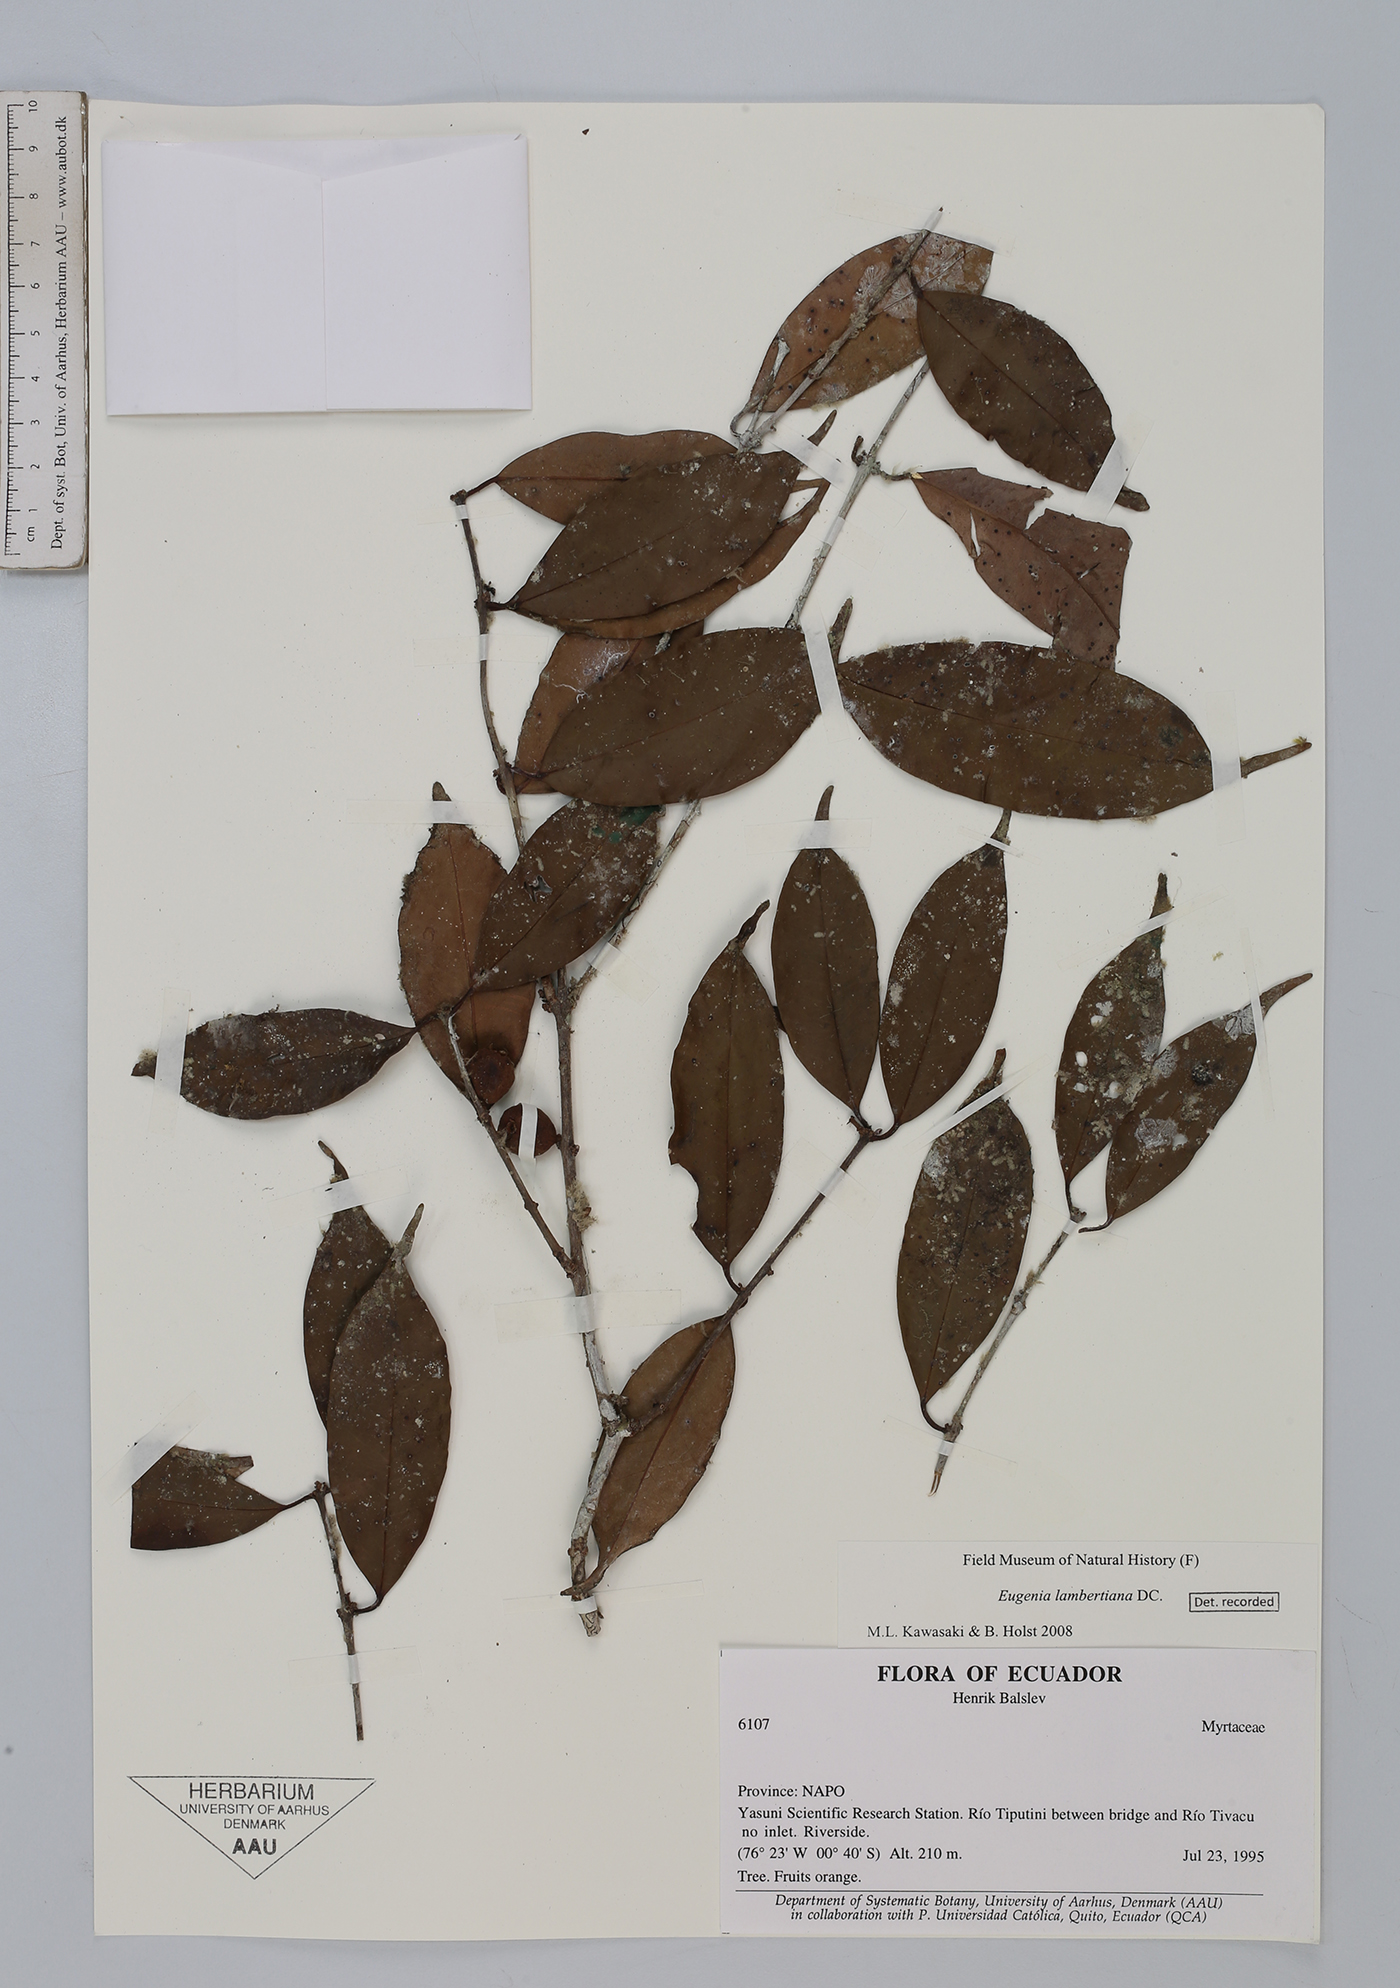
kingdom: Plantae
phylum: Tracheophyta
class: Magnoliopsida
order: Myrtales
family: Myrtaceae
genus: Eugenia
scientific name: Eugenia lambertiana
